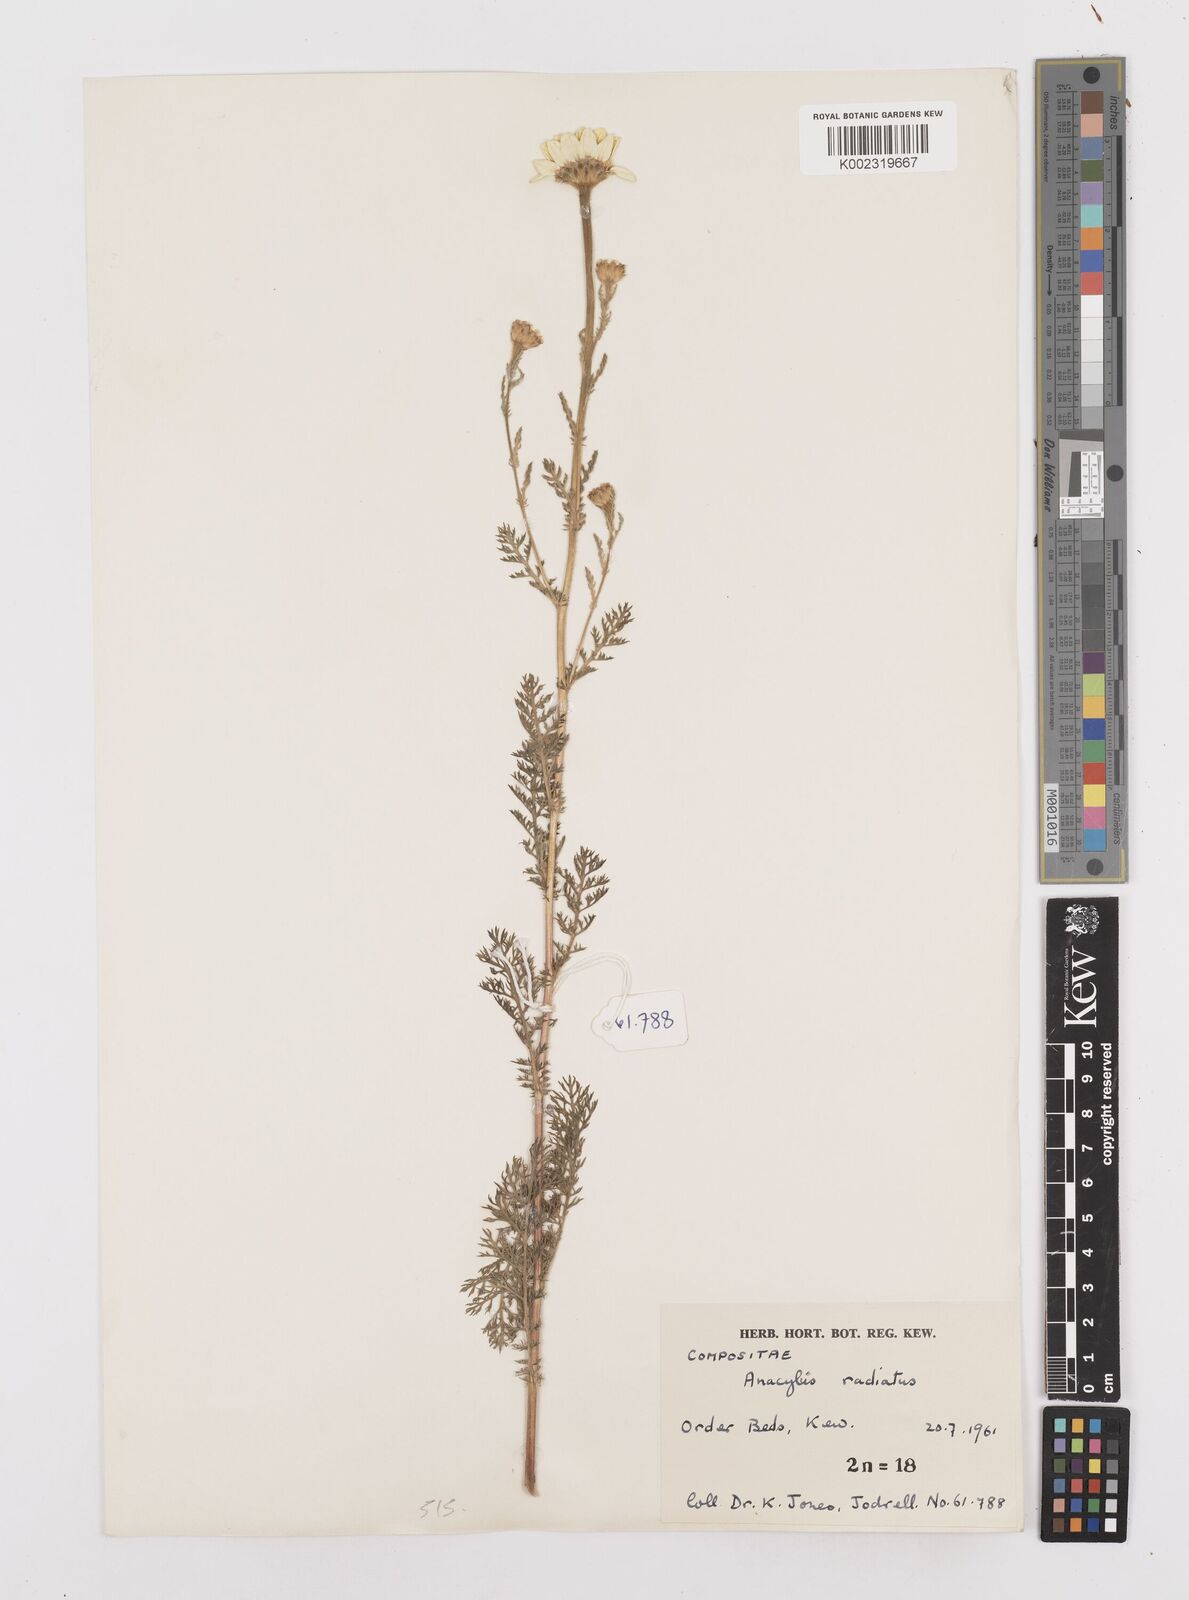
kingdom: Plantae
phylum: Tracheophyta
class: Magnoliopsida
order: Asterales
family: Asteraceae
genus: Anacyclus
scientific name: Anacyclus radiatus
